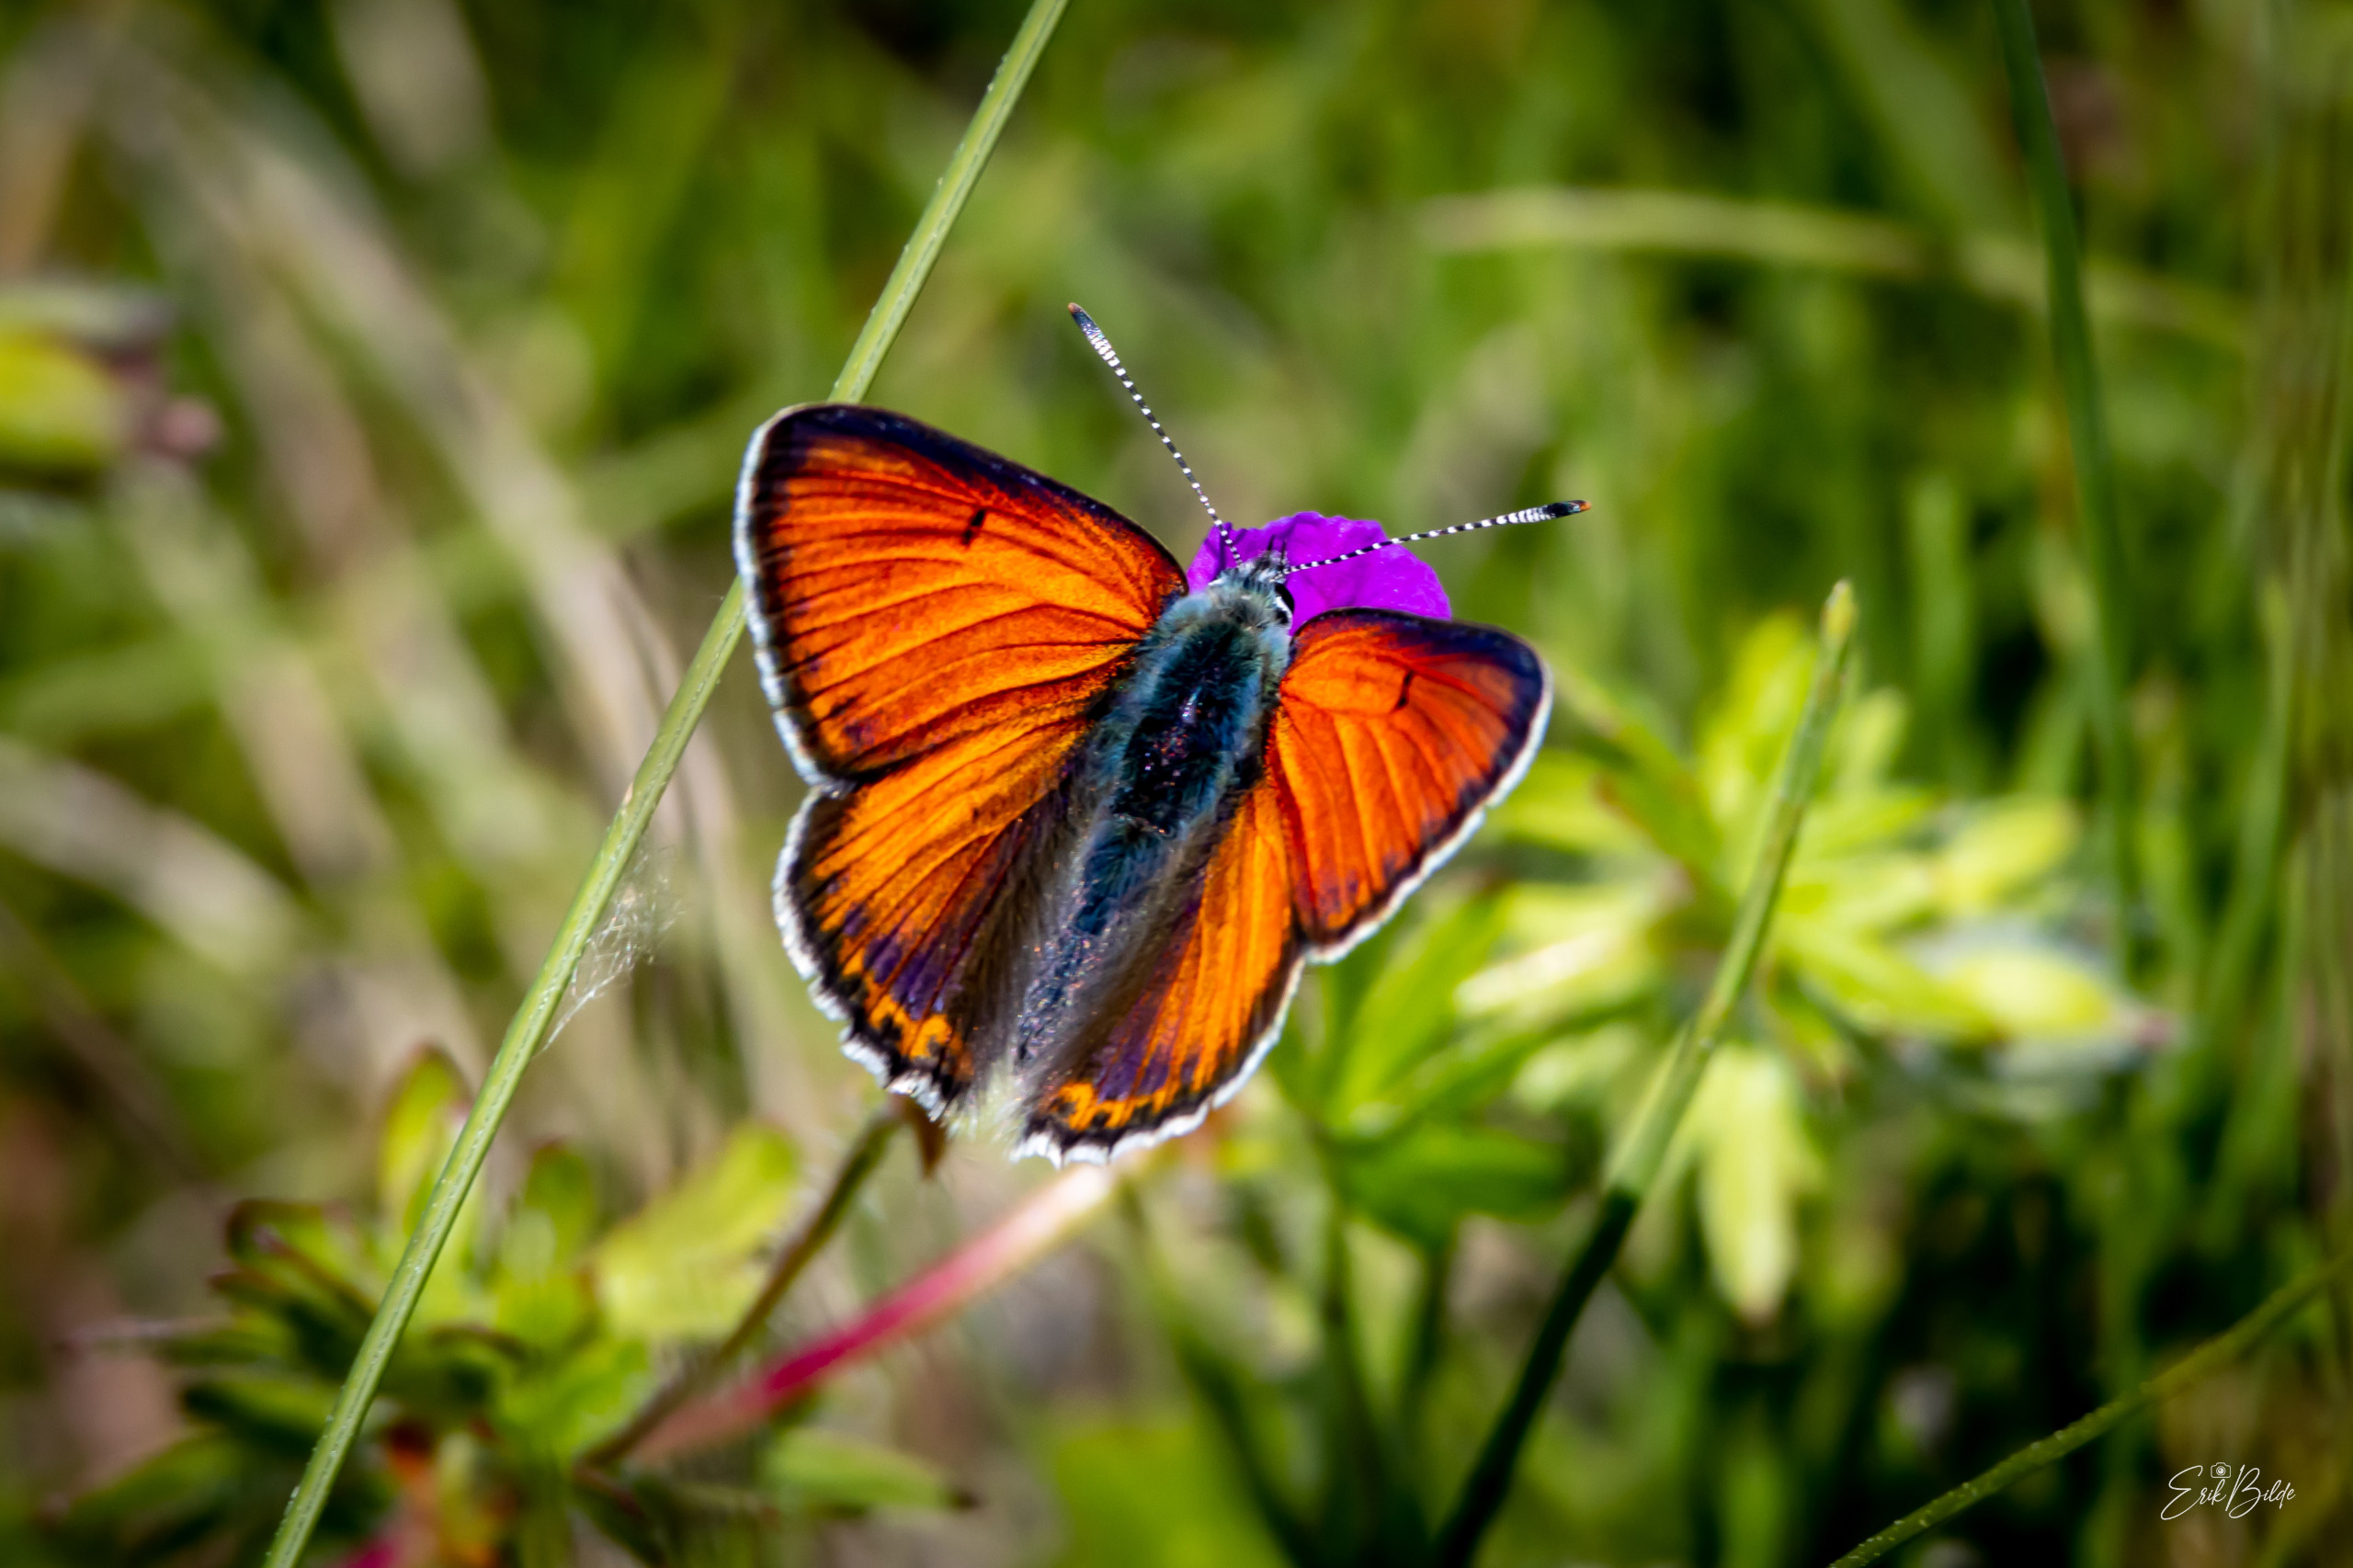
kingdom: Animalia
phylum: Arthropoda
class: Insecta
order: Lepidoptera
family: Lycaenidae
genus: Palaeochrysophanus
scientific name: Palaeochrysophanus hippothoe
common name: Violetrandet ildfugl
